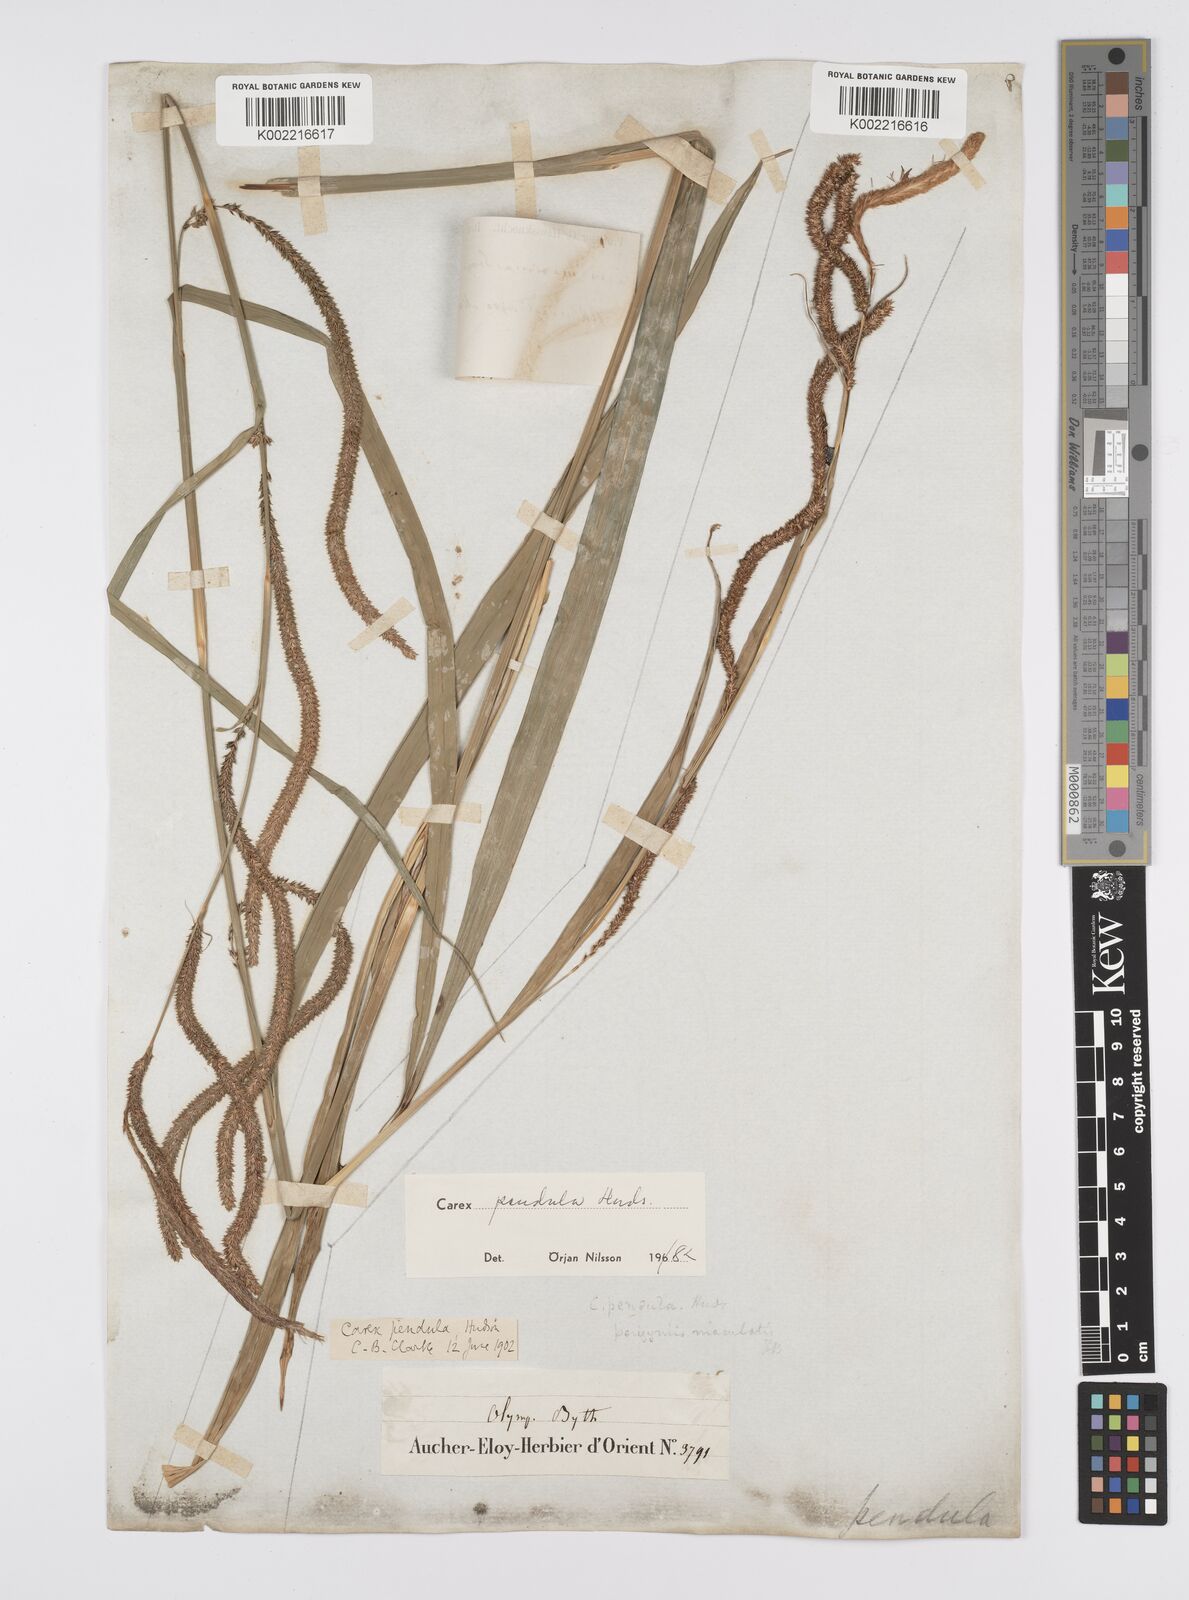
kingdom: Plantae
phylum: Tracheophyta
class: Liliopsida
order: Poales
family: Cyperaceae
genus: Carex
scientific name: Carex pendula
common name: Pendulous sedge
